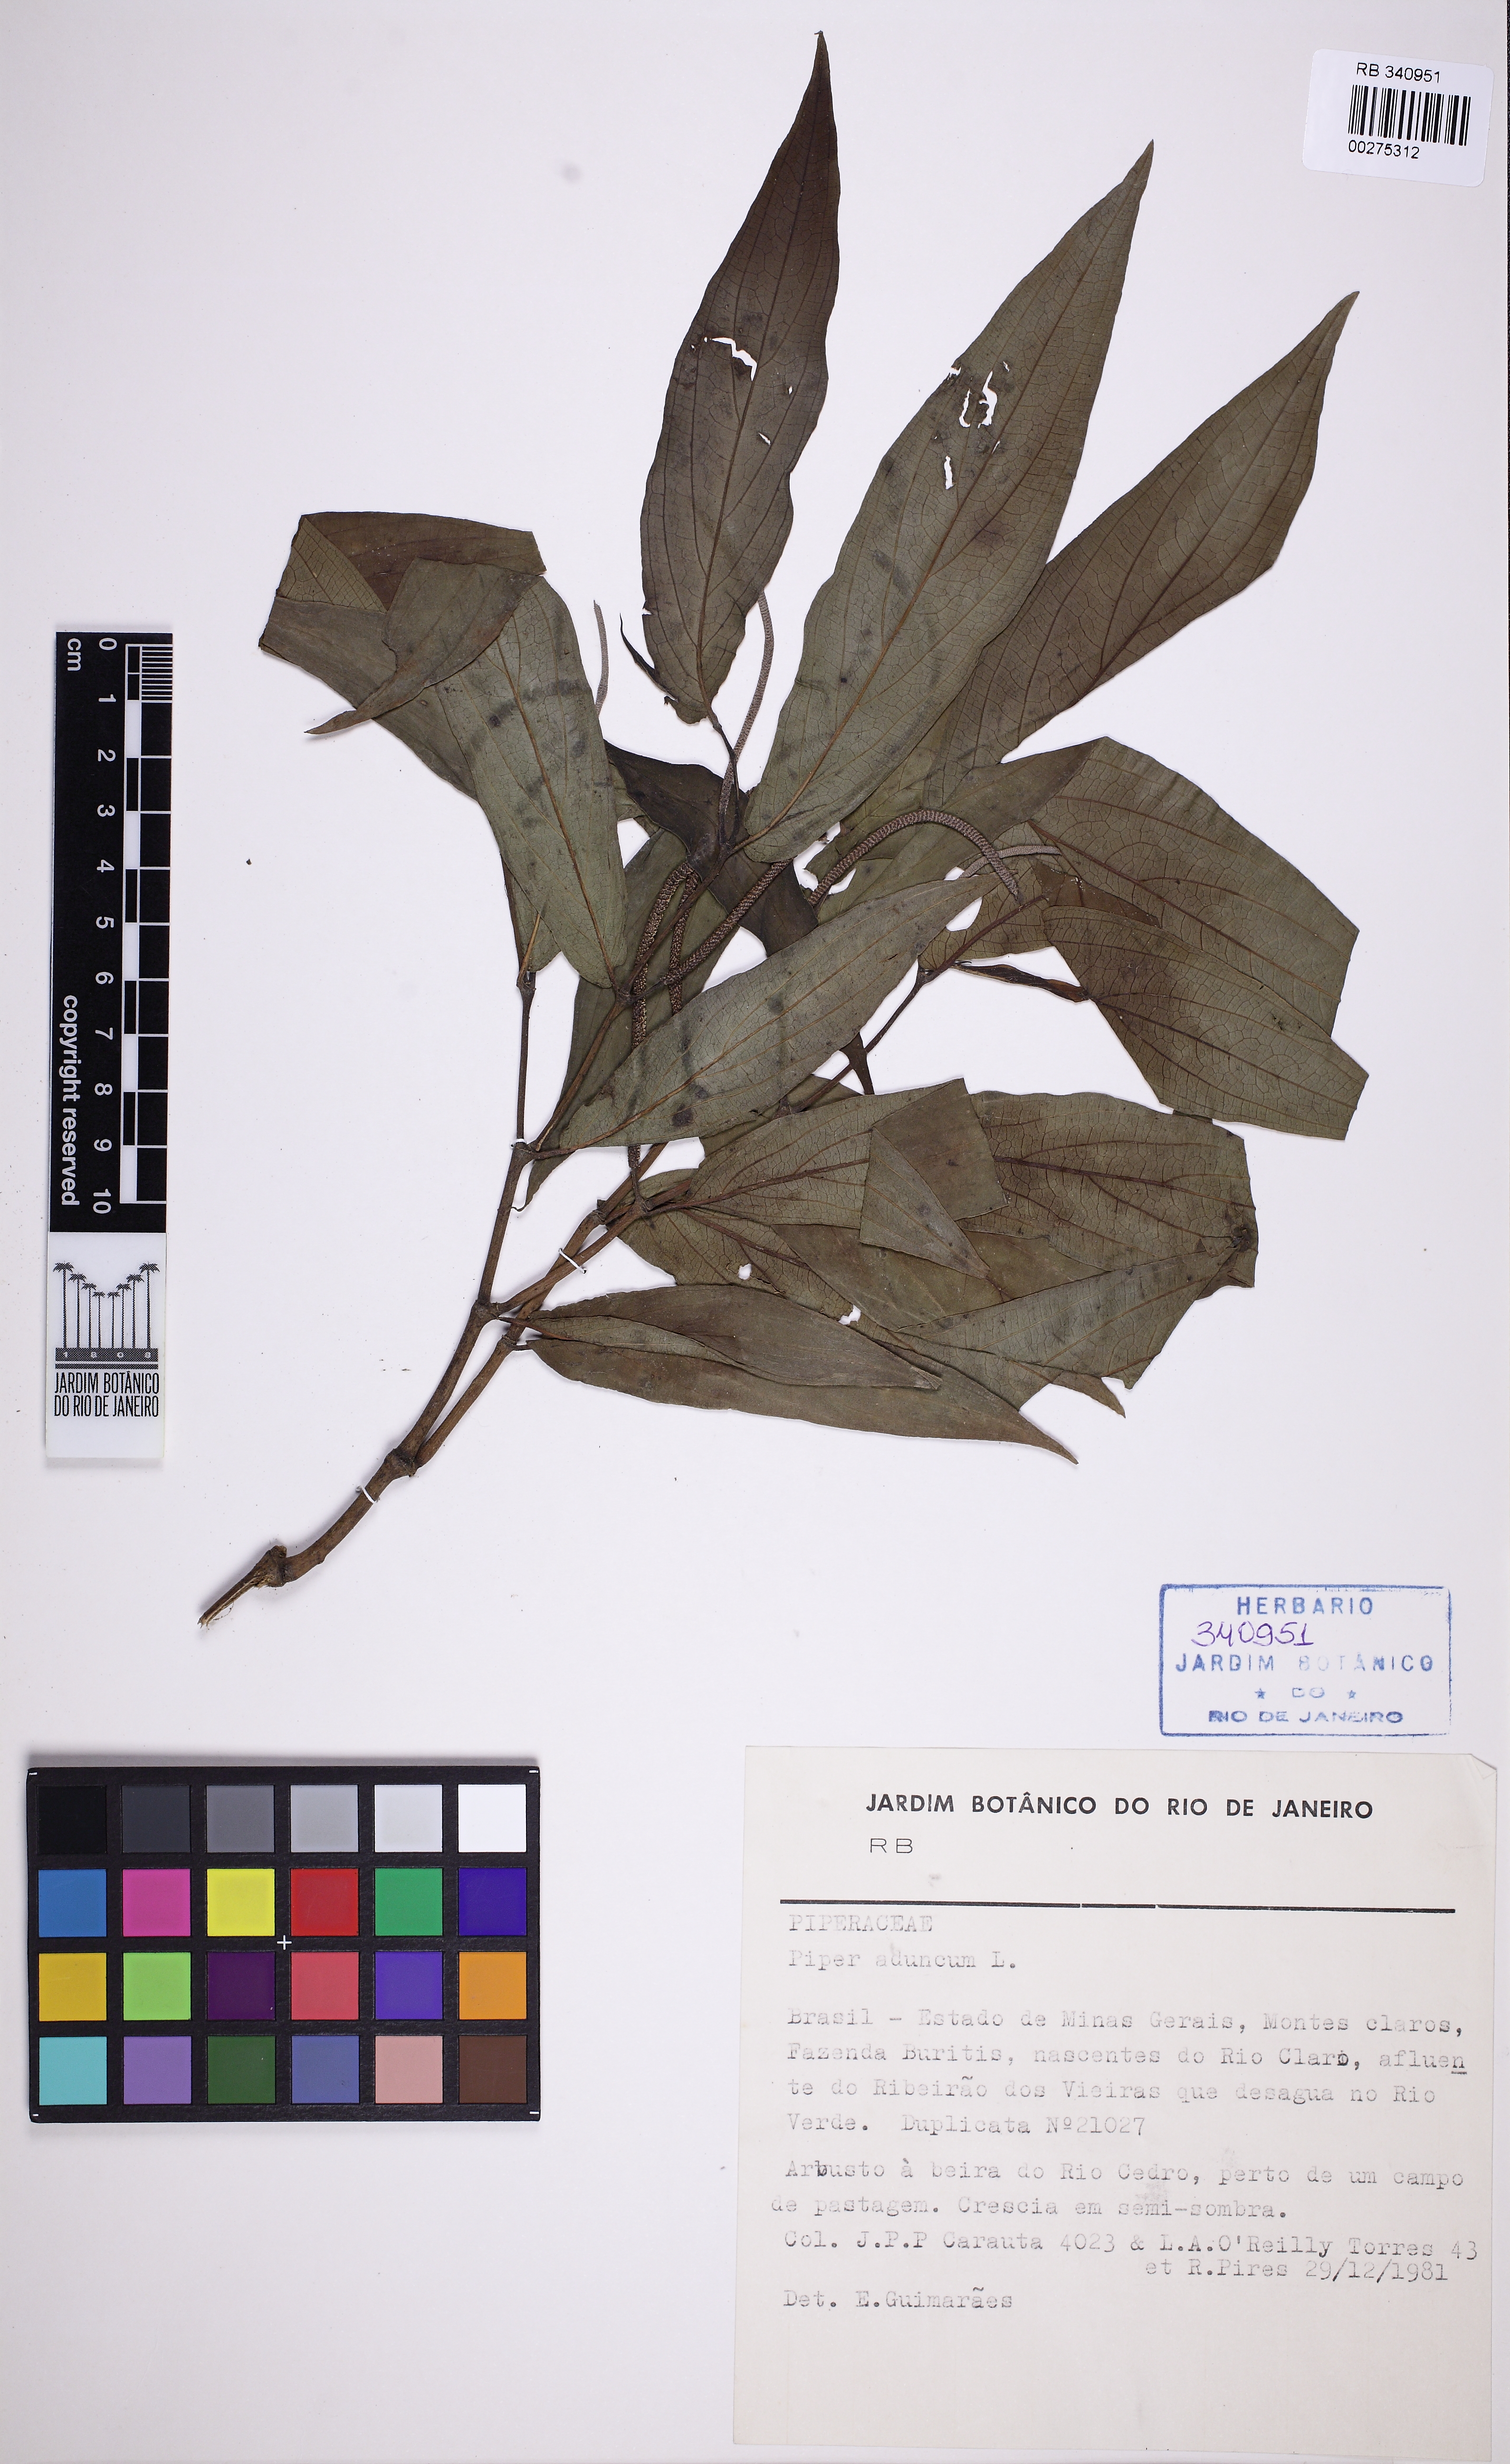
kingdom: Plantae
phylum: Tracheophyta
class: Magnoliopsida
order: Piperales
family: Piperaceae
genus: Piper
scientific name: Piper aduncum
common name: Spiked pepper
